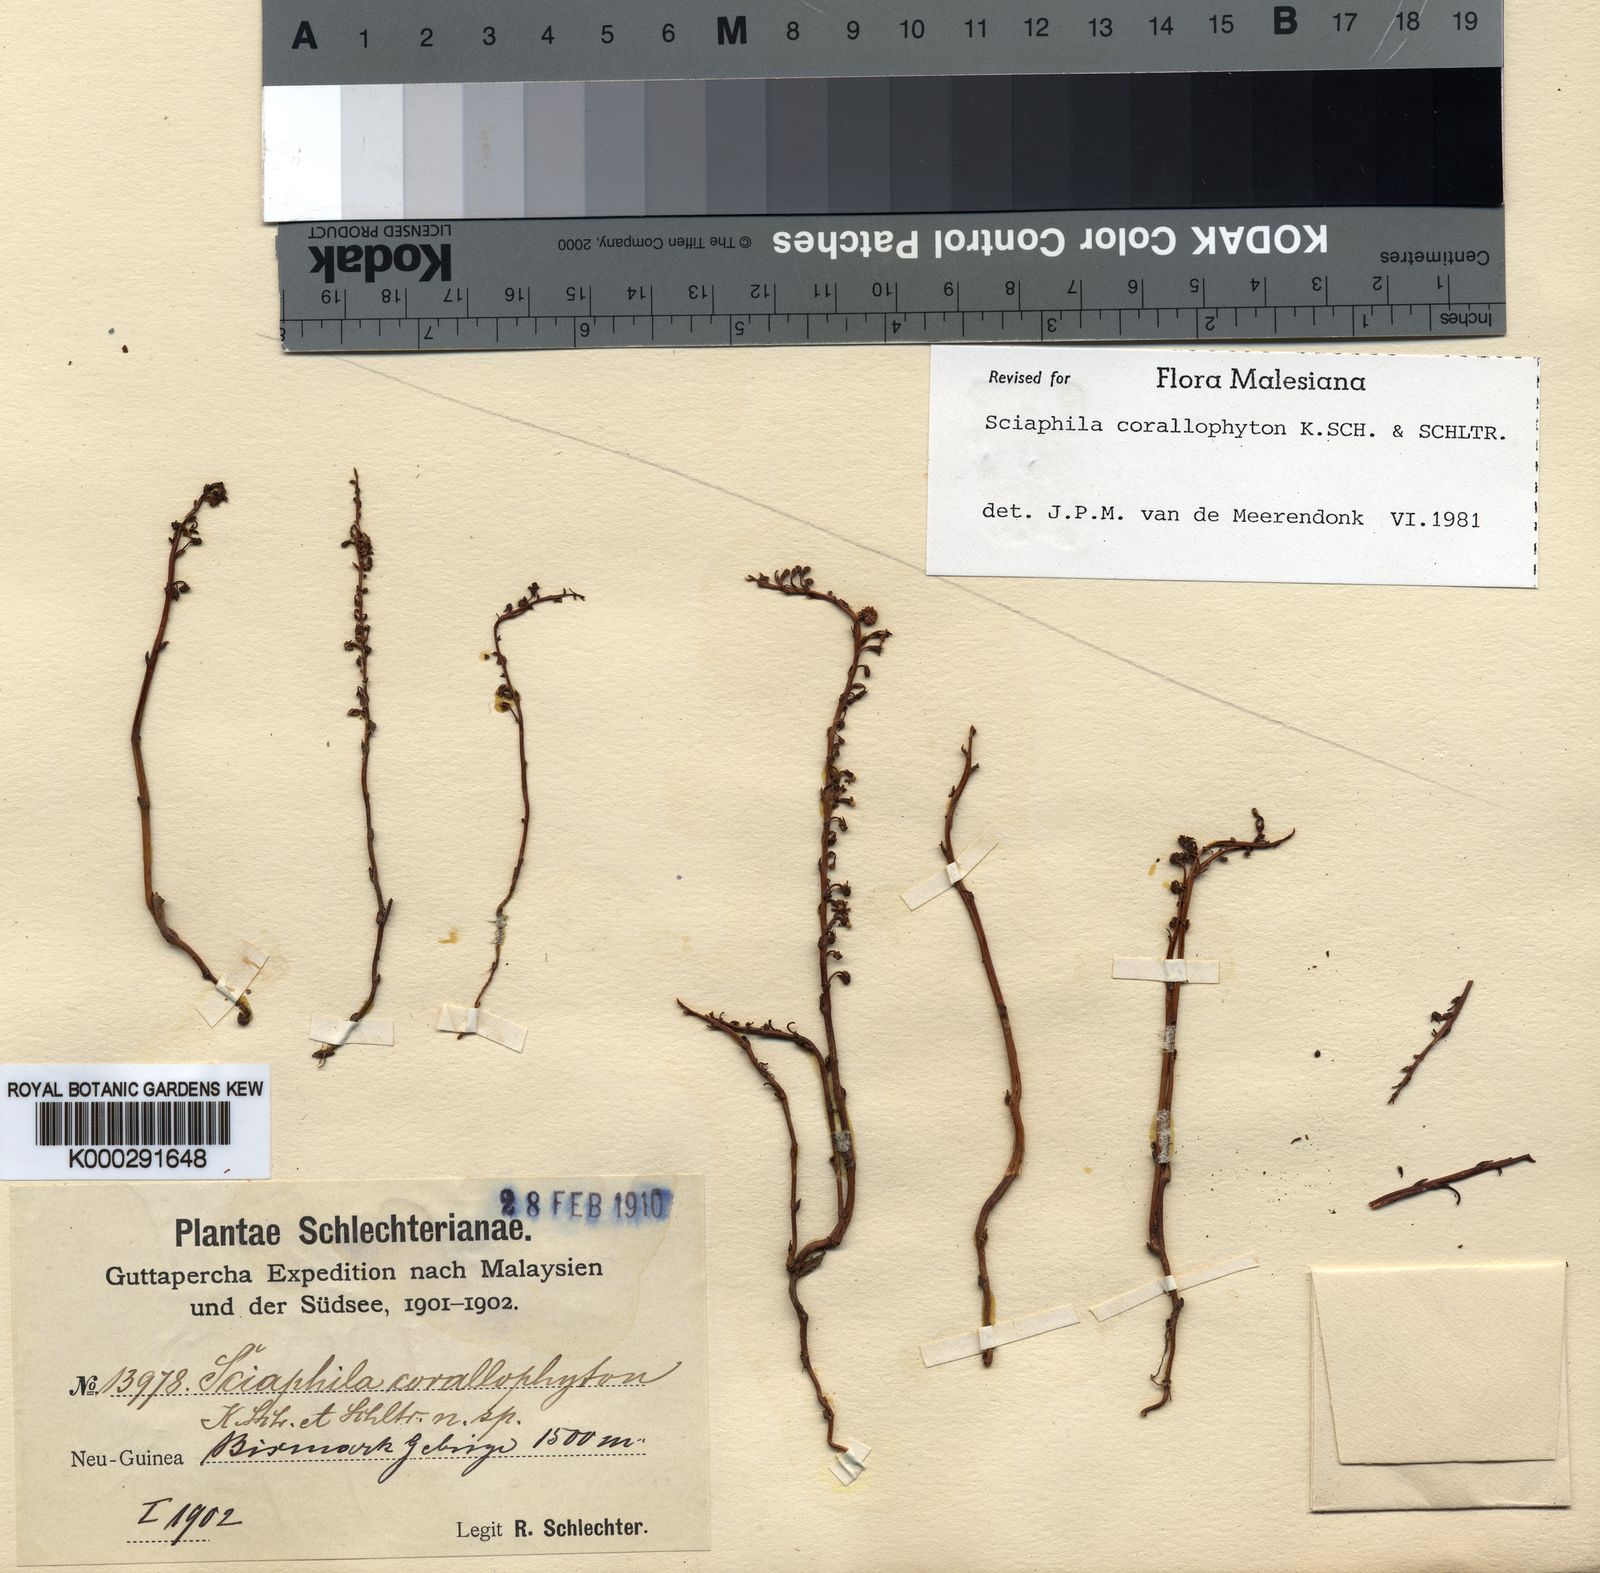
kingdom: Plantae
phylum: Tracheophyta
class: Liliopsida
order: Pandanales
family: Triuridaceae
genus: Sciaphila
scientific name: Sciaphila corallophyton
